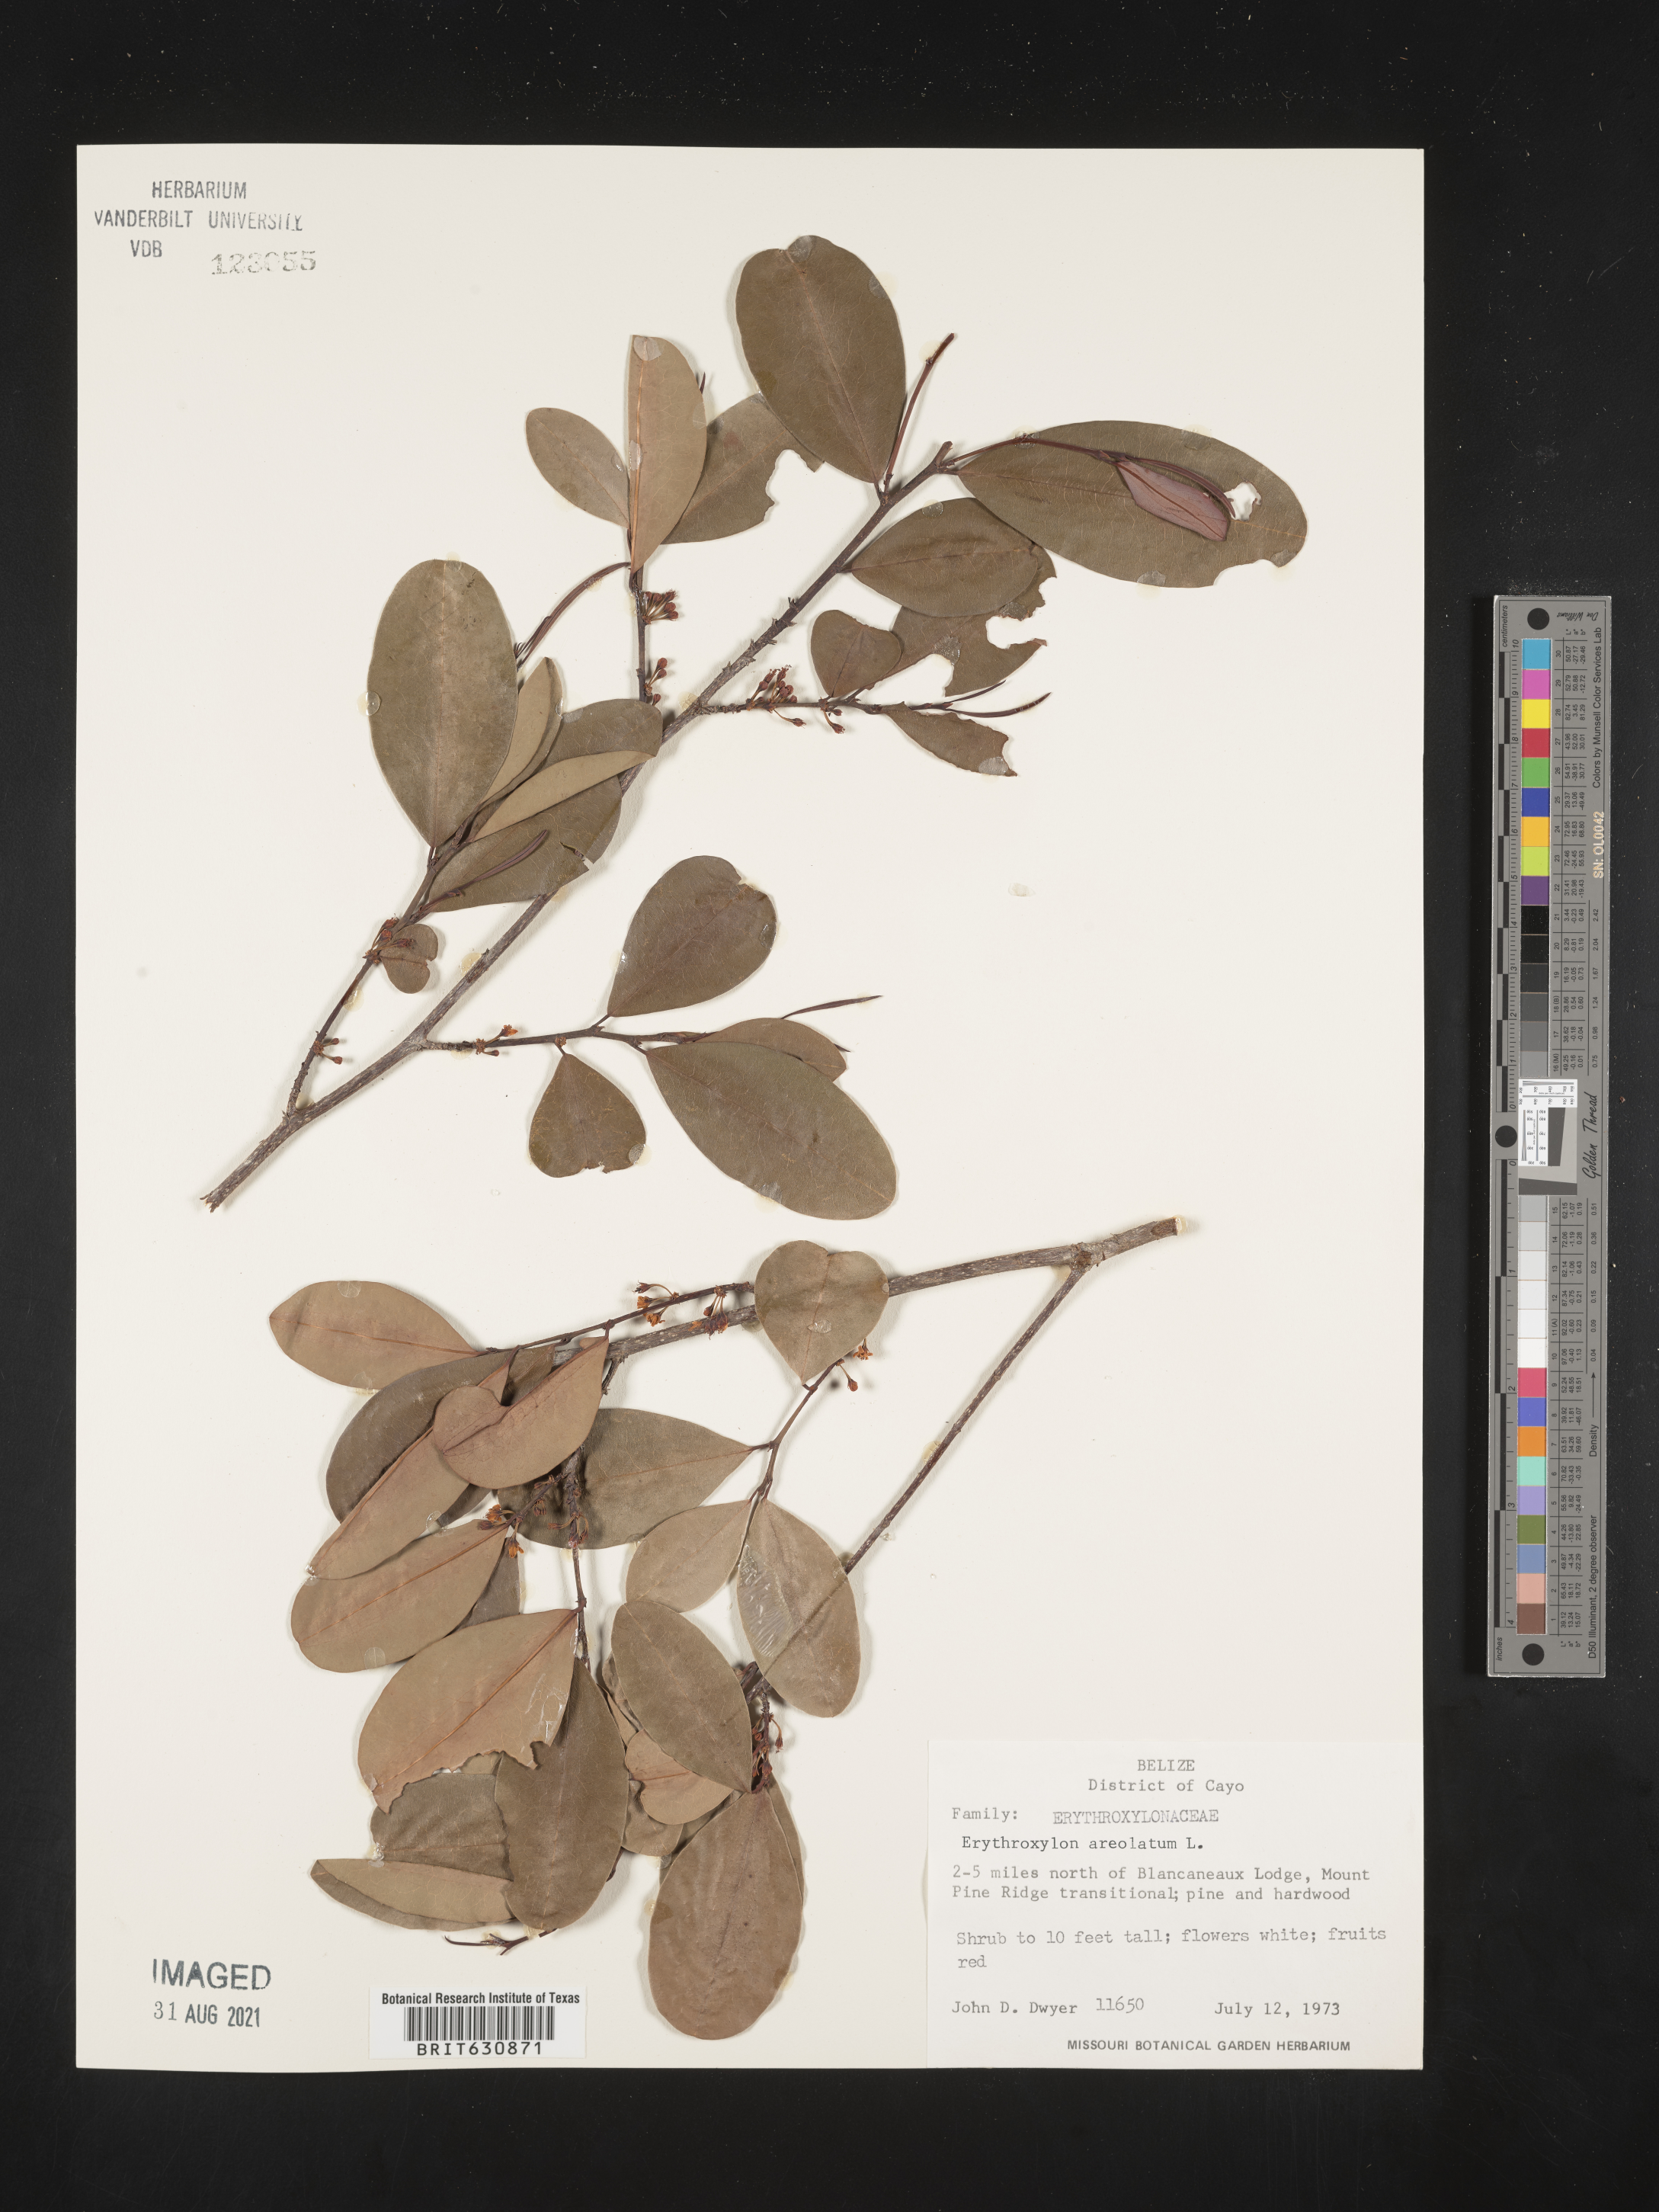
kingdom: Plantae
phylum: Tracheophyta
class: Magnoliopsida
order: Malpighiales
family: Erythroxylaceae
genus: Erythroxylum
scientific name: Erythroxylum
